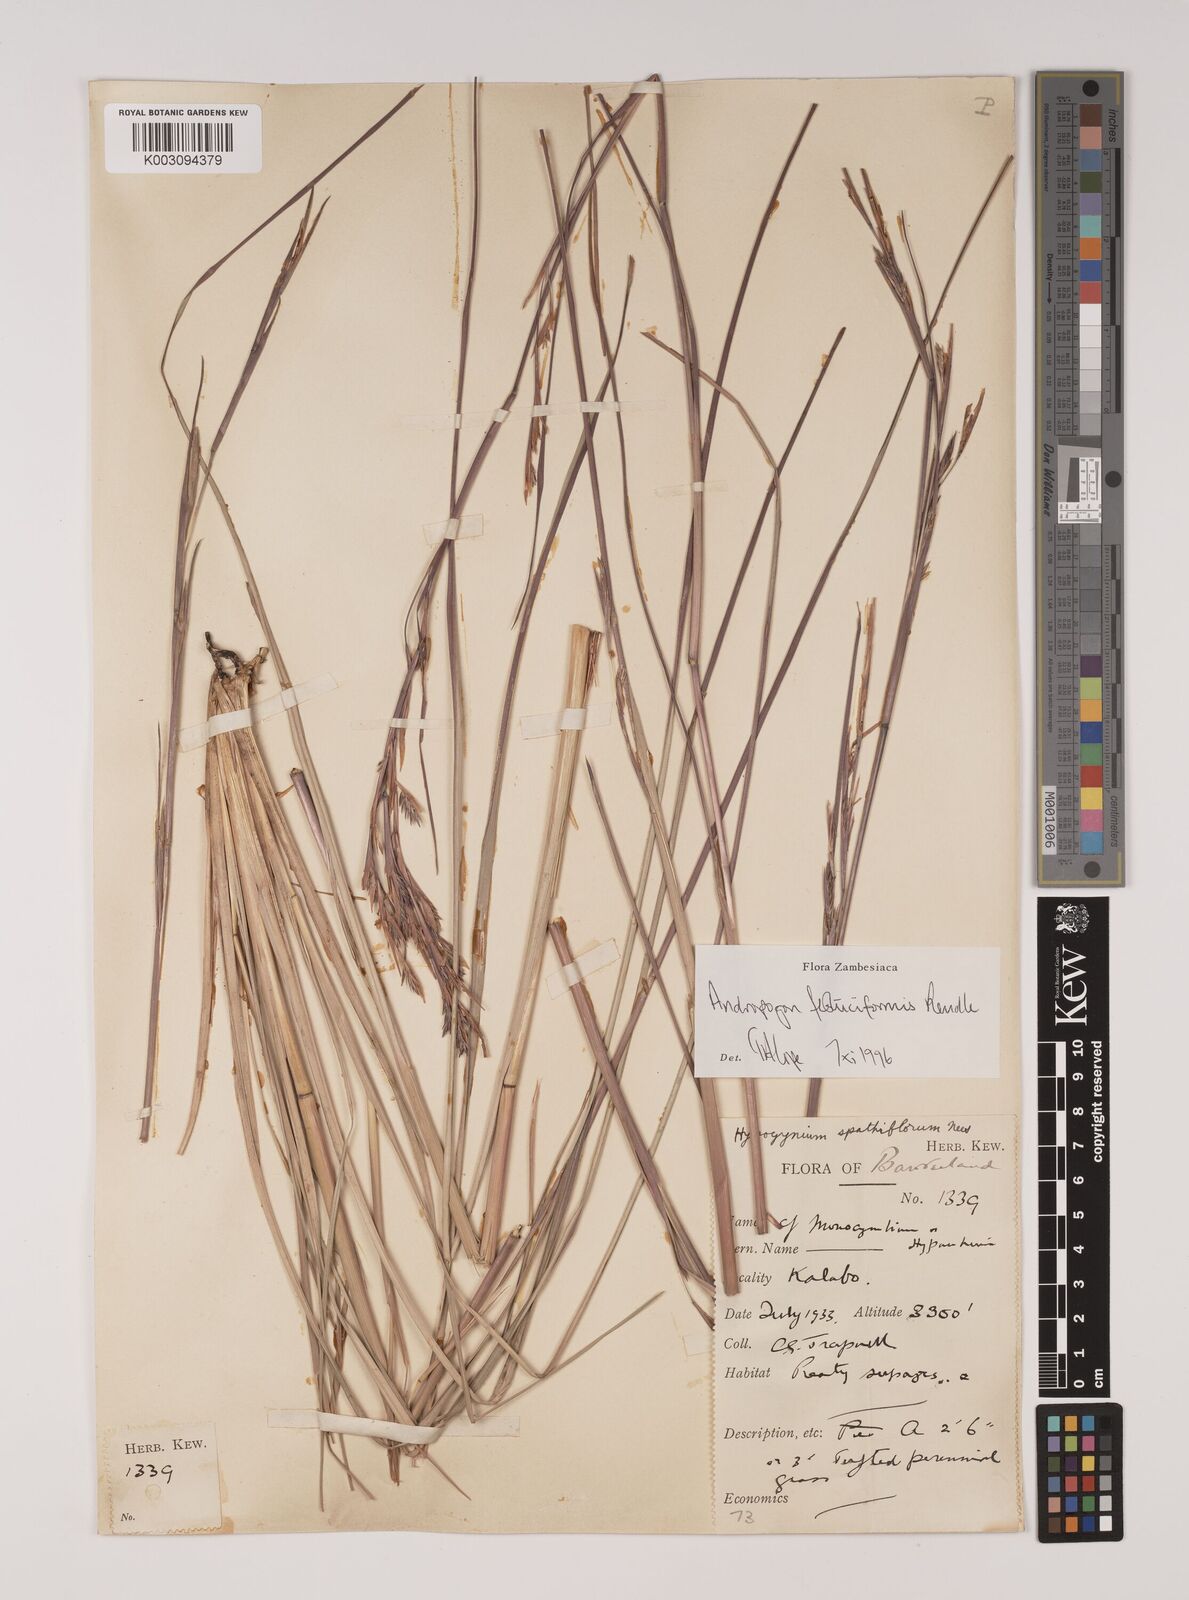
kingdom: Plantae
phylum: Tracheophyta
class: Liliopsida
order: Poales
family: Poaceae
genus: Andropogon
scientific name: Andropogon festuciformis
